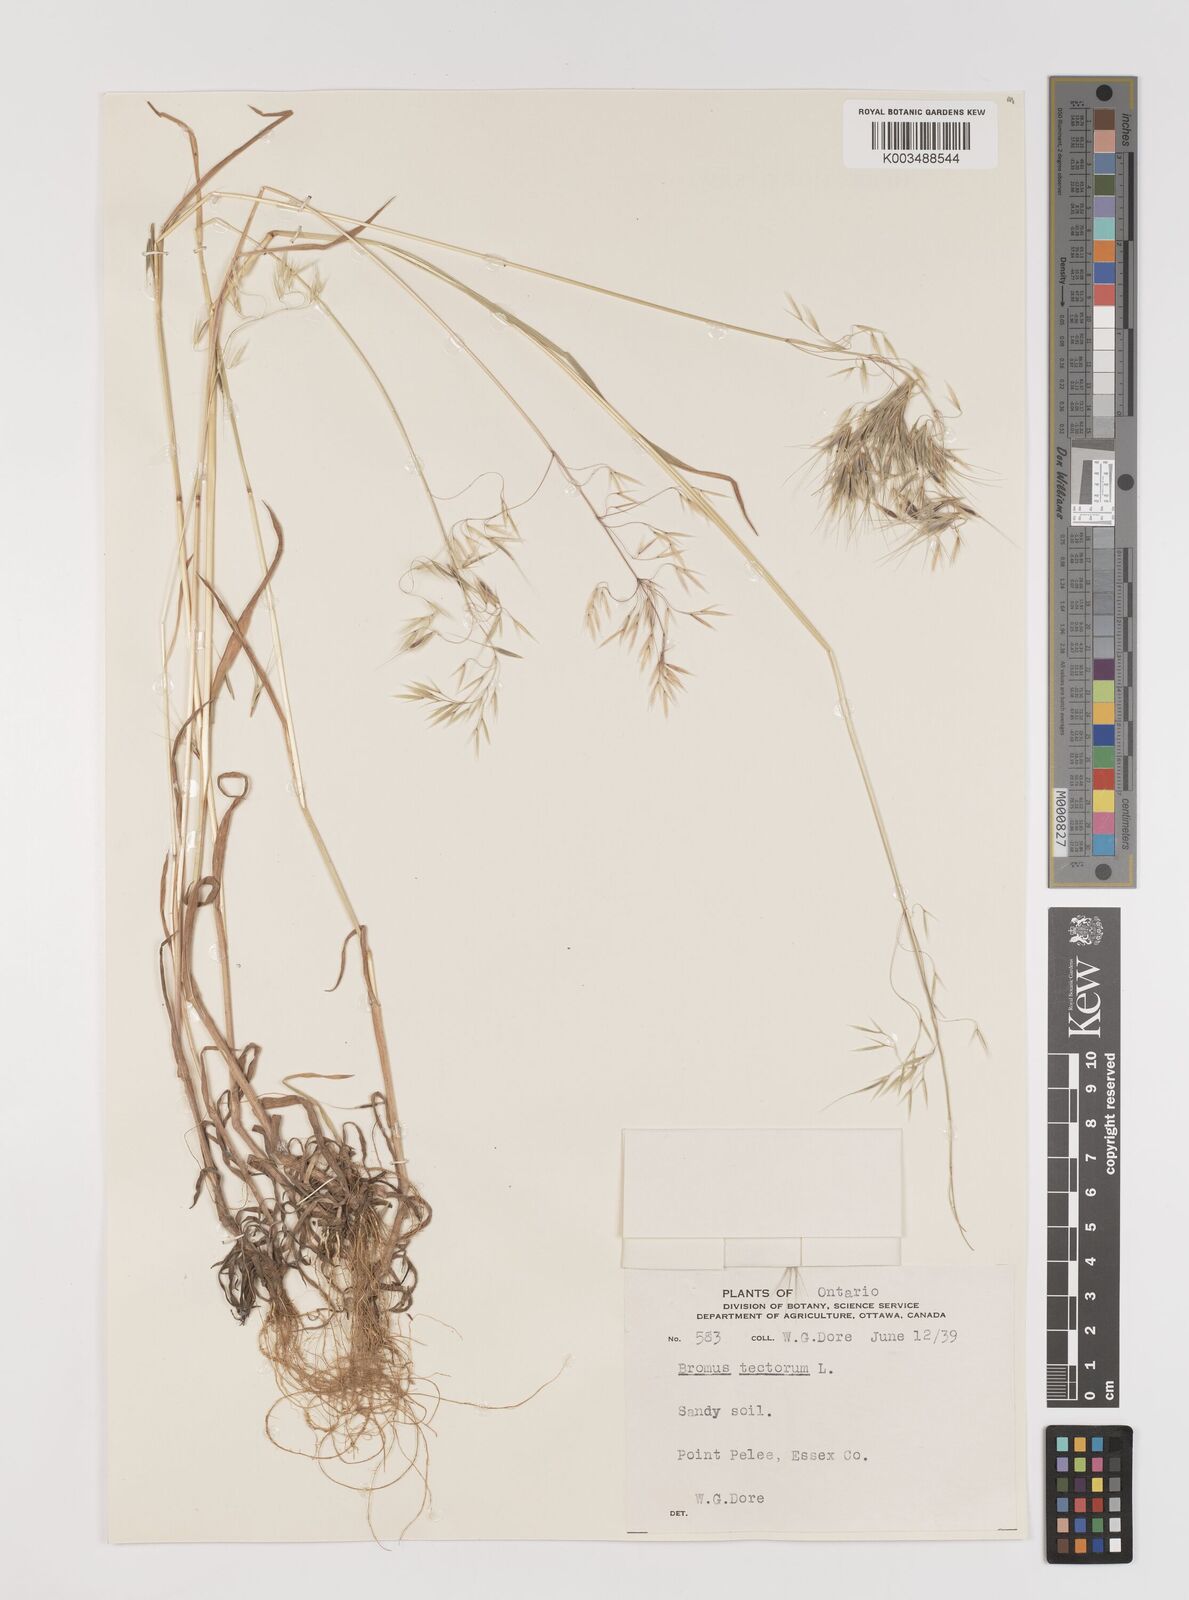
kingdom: Plantae
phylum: Tracheophyta
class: Liliopsida
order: Poales
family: Poaceae
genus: Bromus
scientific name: Bromus tectorum
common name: Cheatgrass
